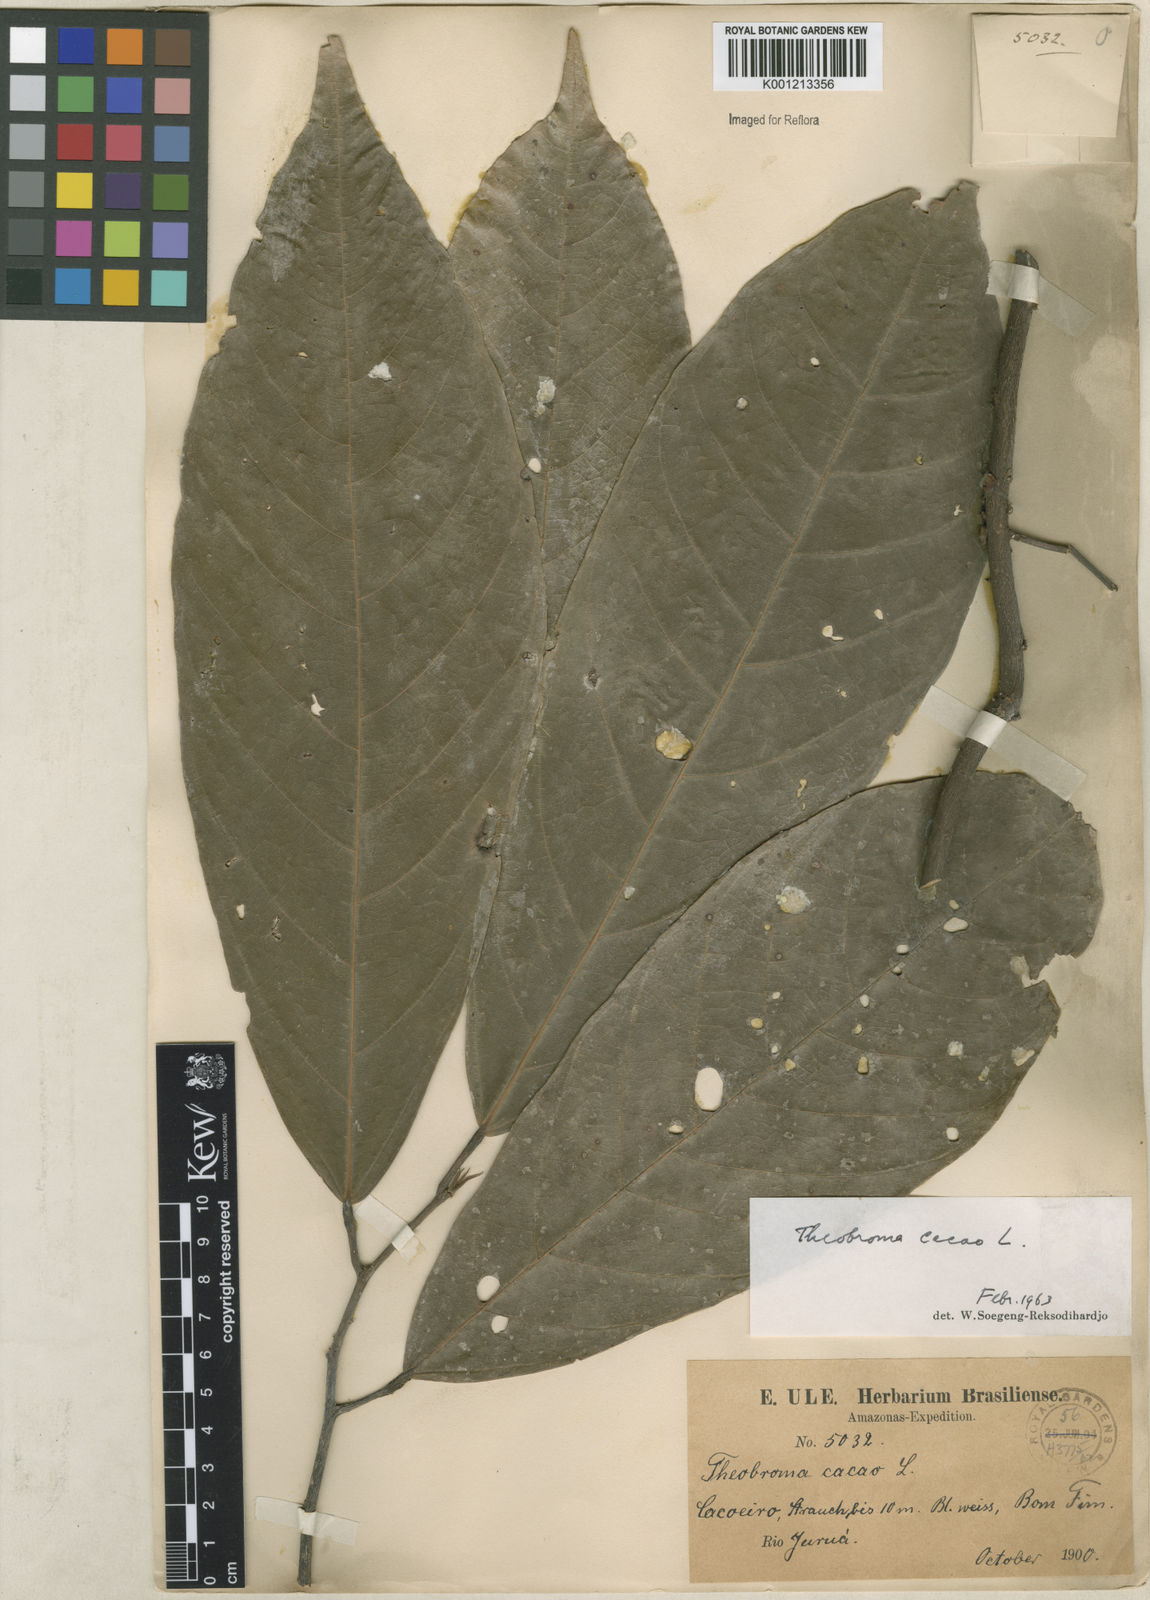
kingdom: Plantae
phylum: Tracheophyta
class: Magnoliopsida
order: Malvales
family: Malvaceae
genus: Theobroma
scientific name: Theobroma cacao
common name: Cocoa
